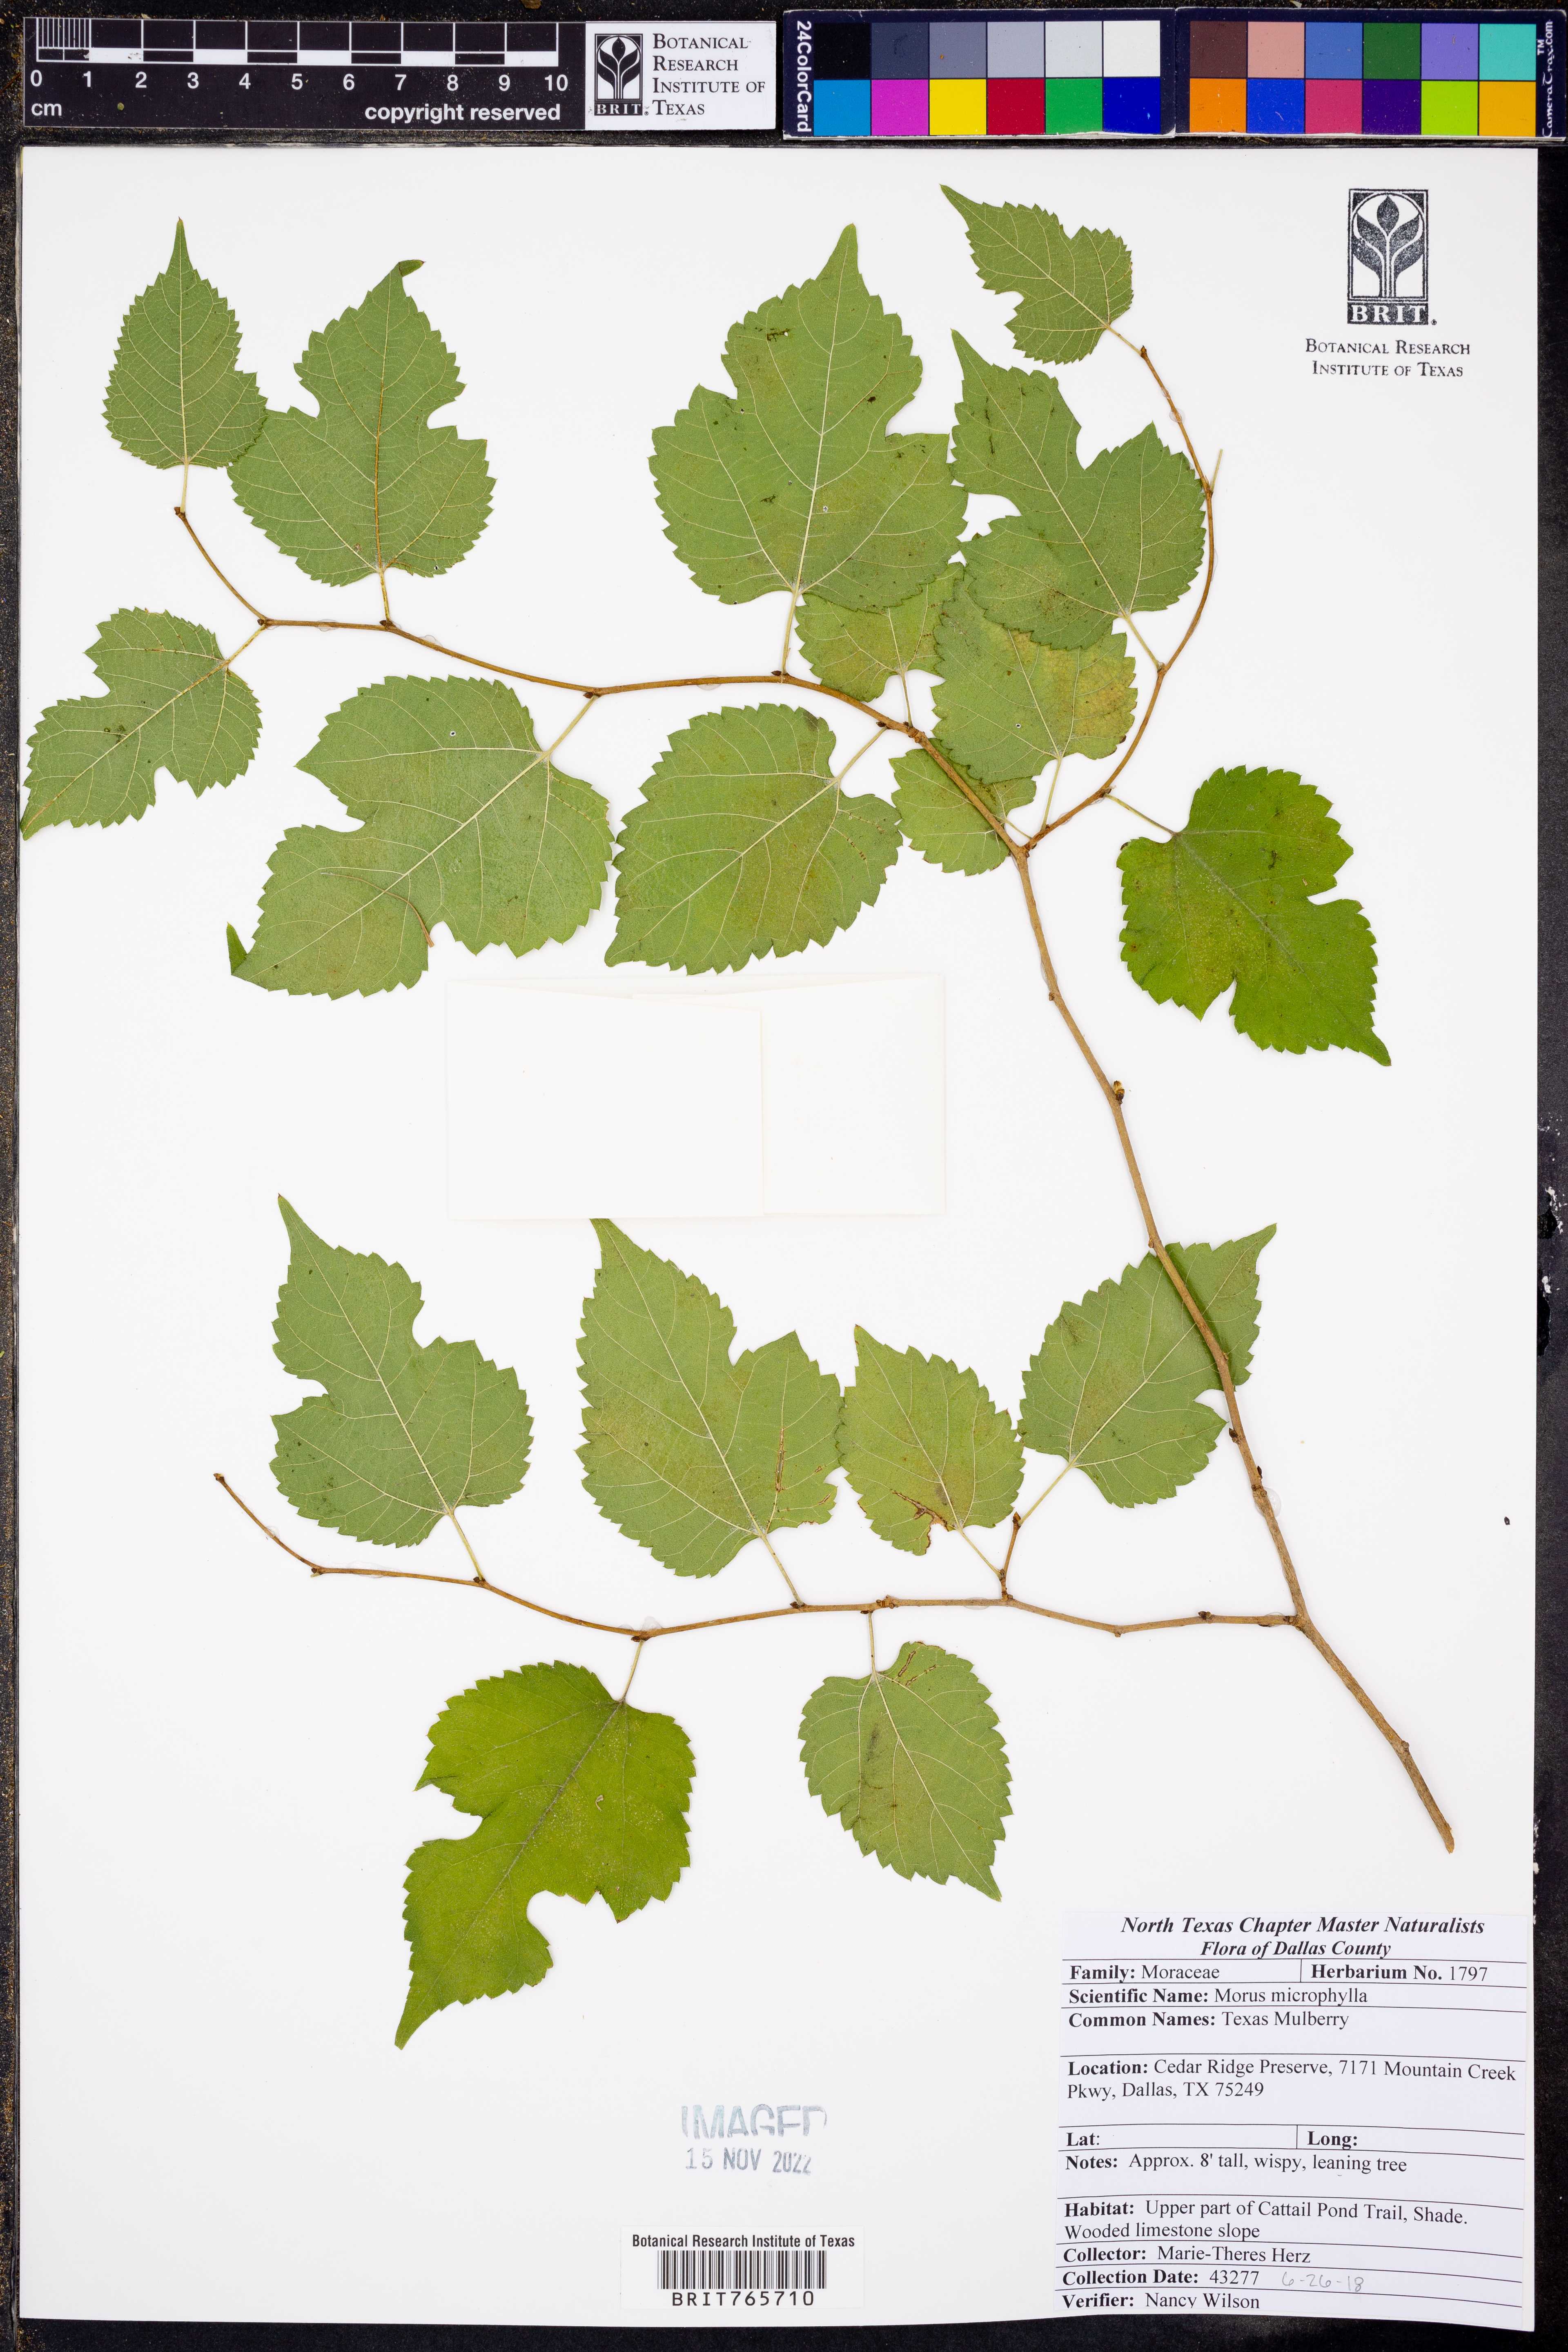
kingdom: Plantae
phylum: Tracheophyta
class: Magnoliopsida
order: Rosales
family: Moraceae
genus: Morus
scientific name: Morus microphylla
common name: Mexican mulberry
